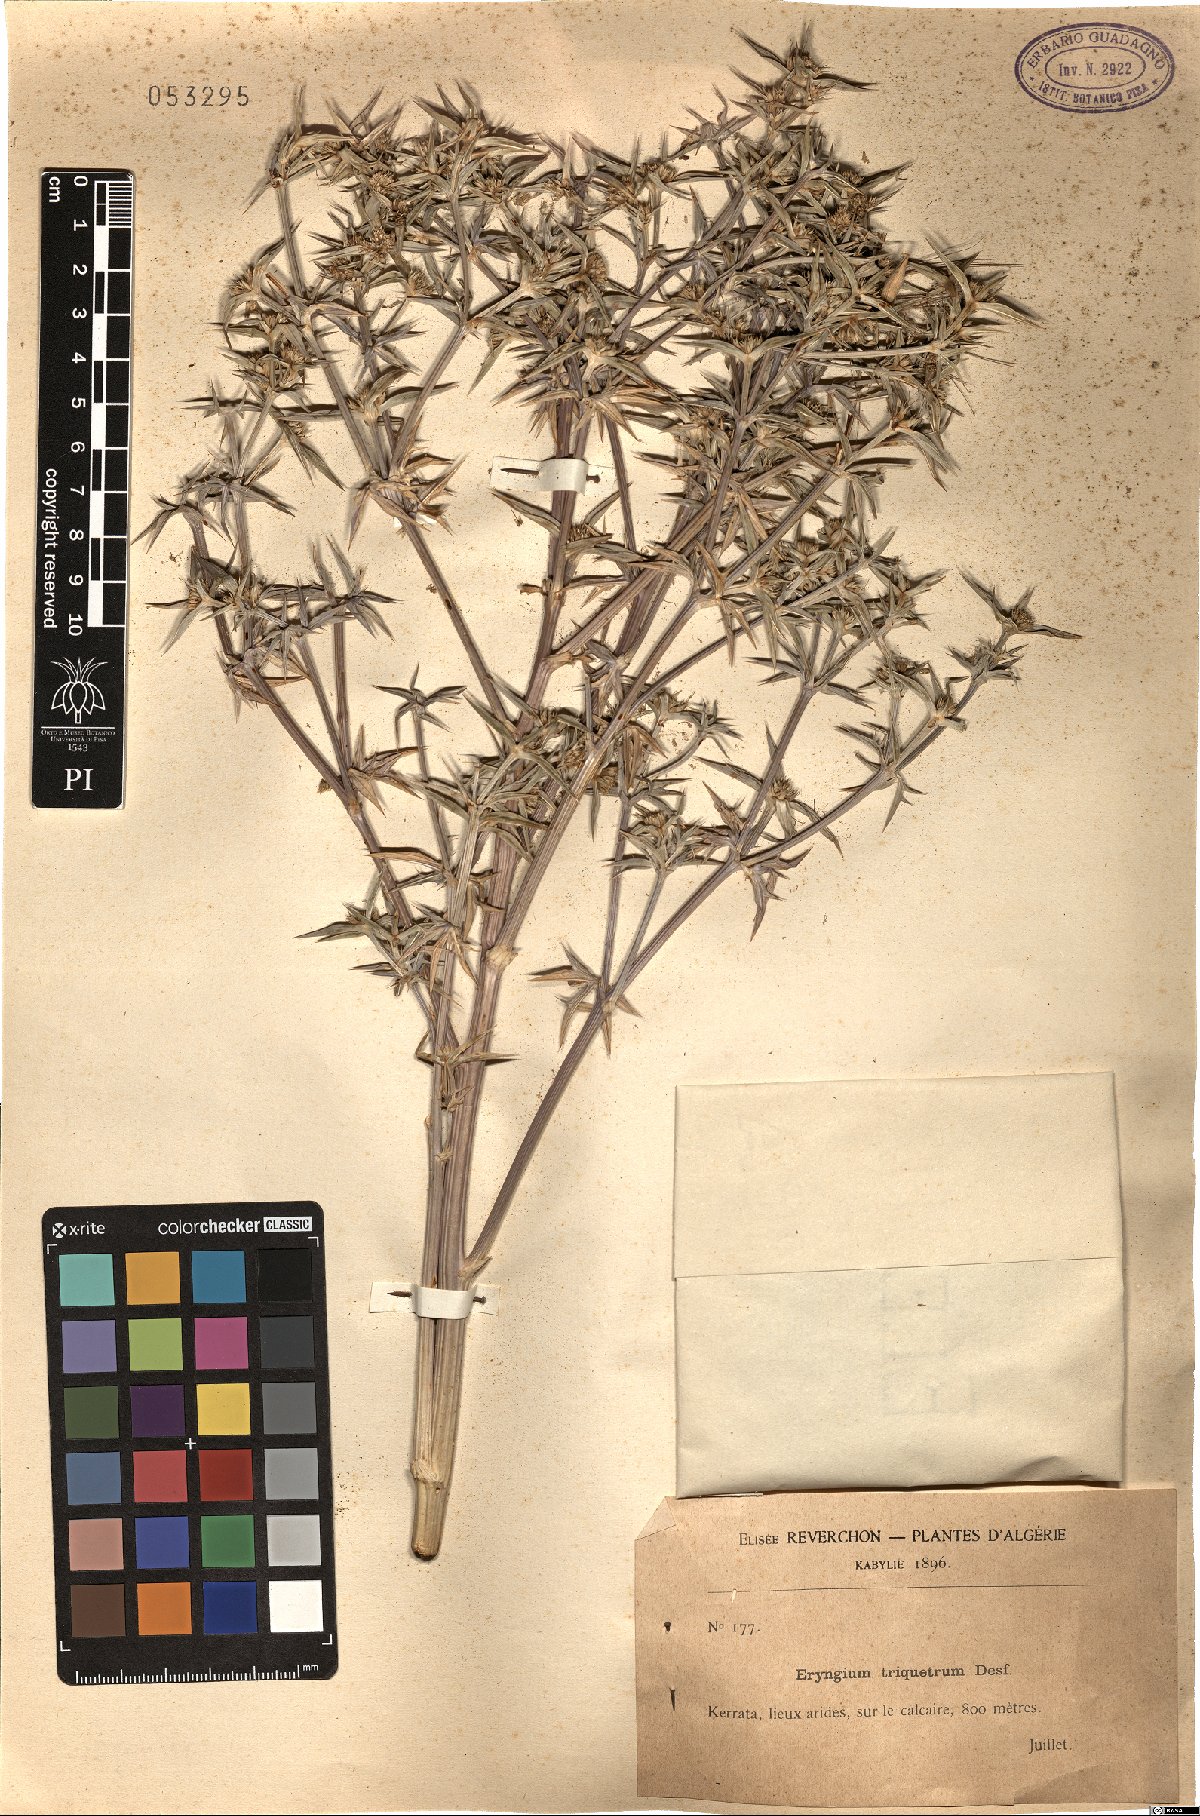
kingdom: Plantae
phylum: Tracheophyta
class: Magnoliopsida
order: Apiales
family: Apiaceae
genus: Eryngium
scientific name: Eryngium triquetrum
